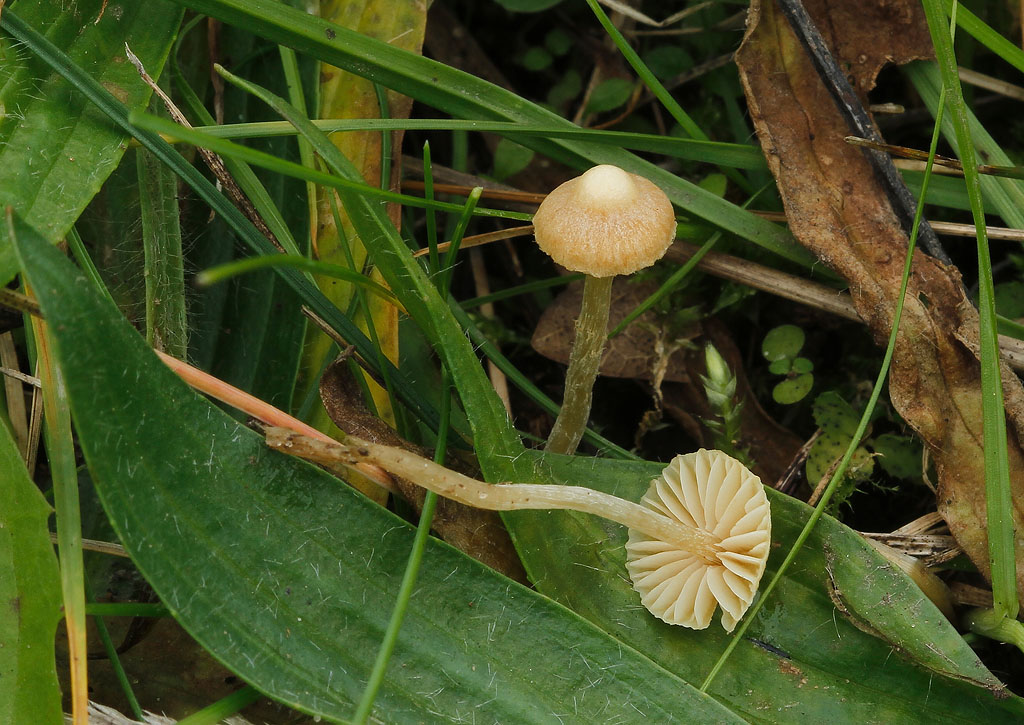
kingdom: Fungi
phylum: Basidiomycota
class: Agaricomycetes
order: Agaricales
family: Hymenogastraceae
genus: Galerina
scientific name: Galerina graminea
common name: plæne-hjelmhat
